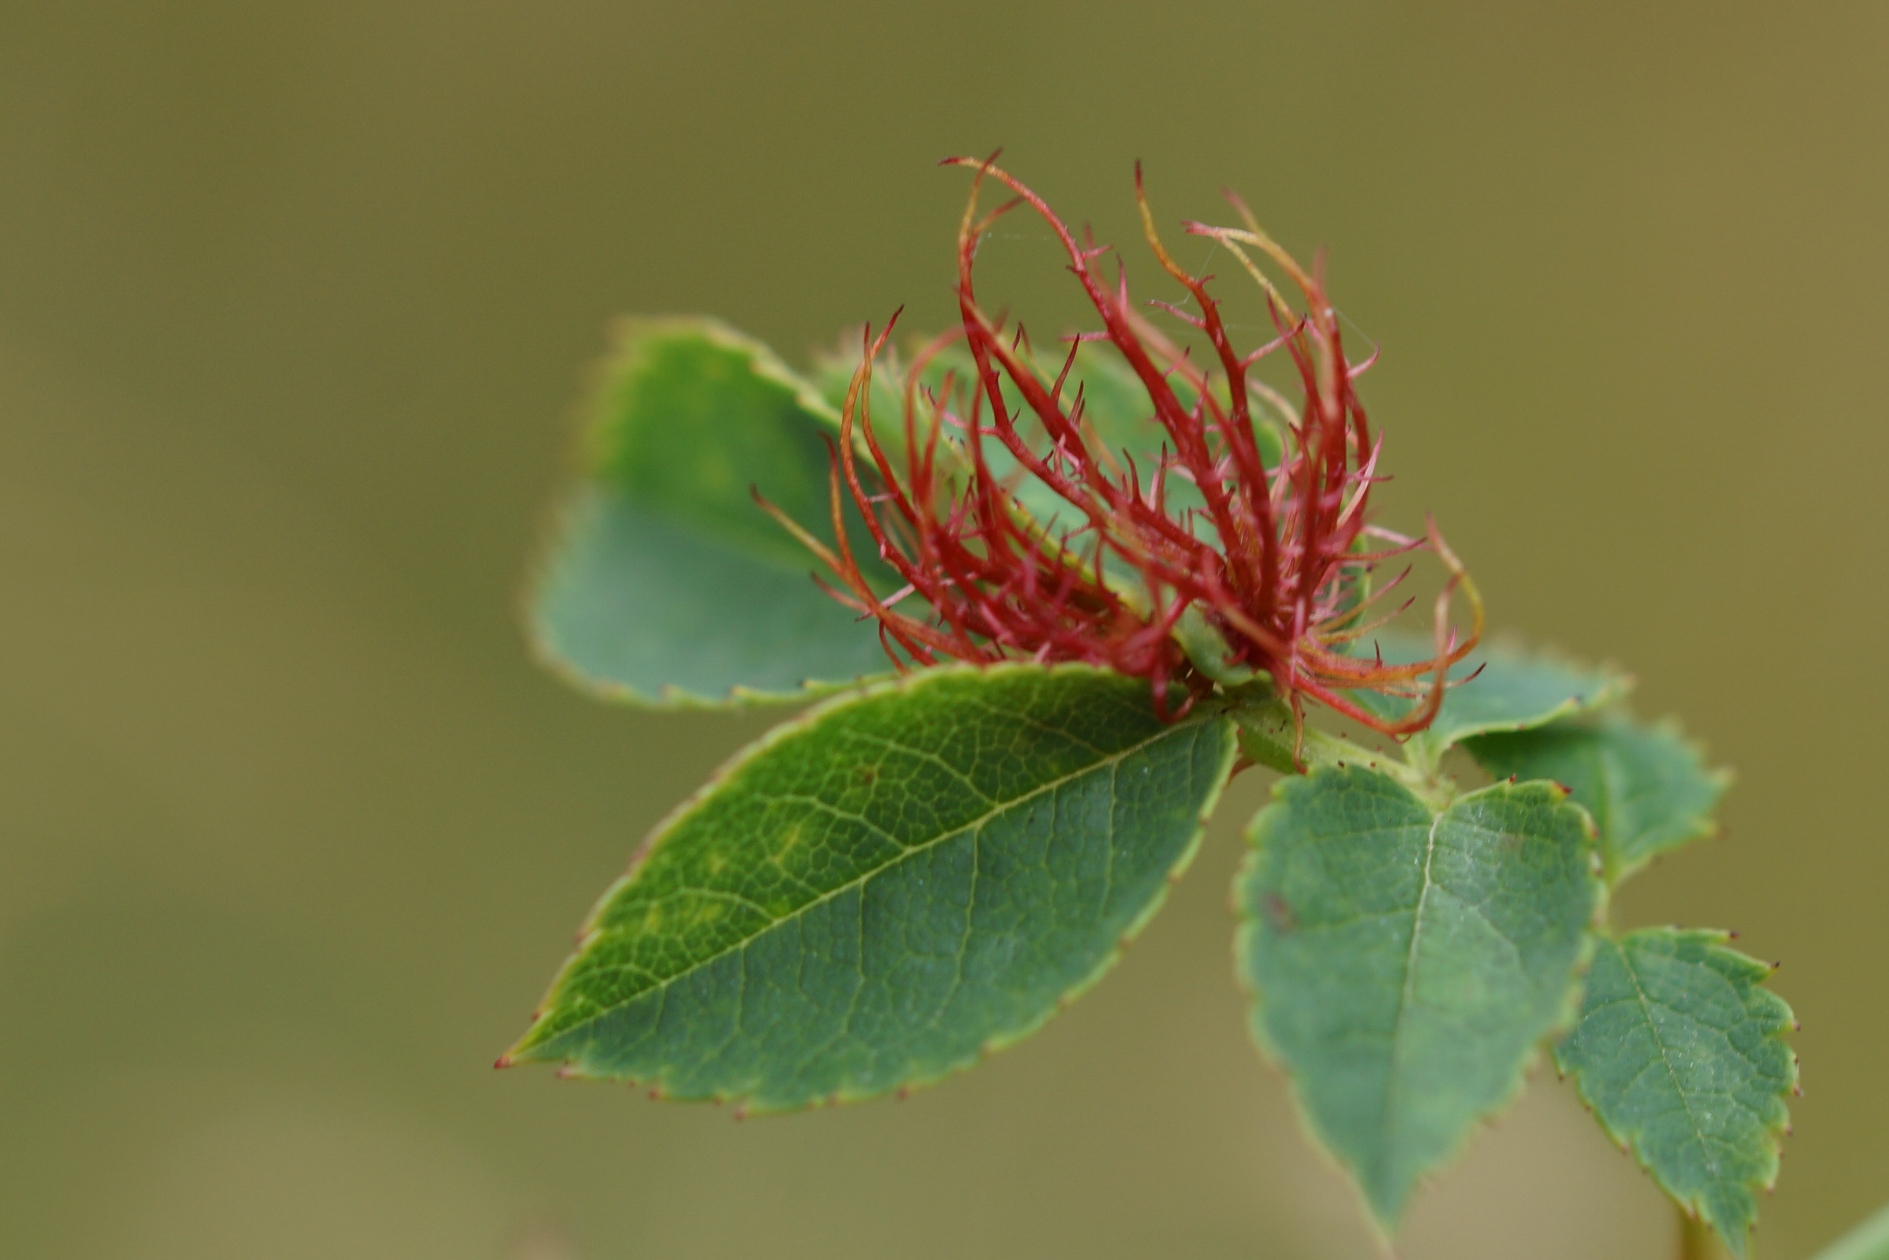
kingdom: Animalia
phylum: Arthropoda
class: Insecta
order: Hymenoptera
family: Cynipidae
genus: Diplolepis
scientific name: Diplolepis rosae
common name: Bedeguargalhveps
